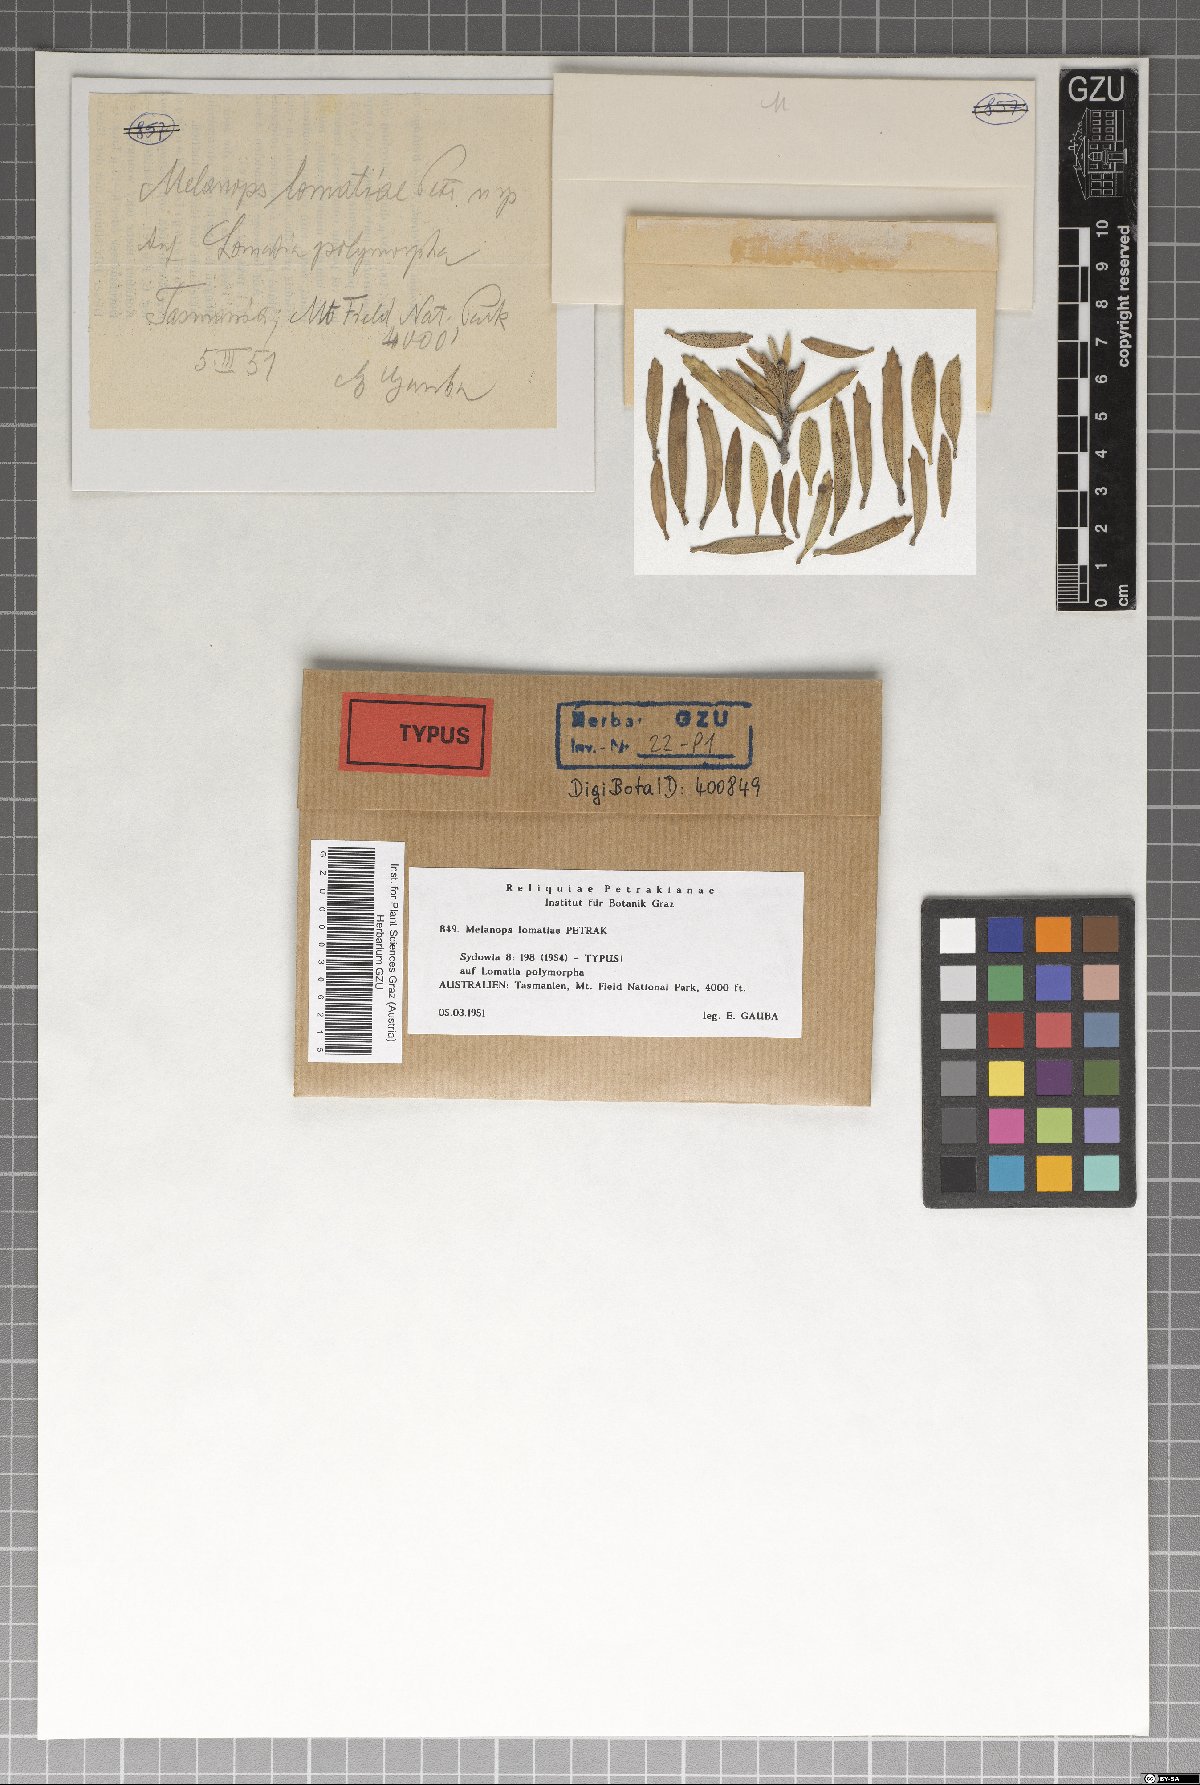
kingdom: Fungi
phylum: Ascomycota
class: Dothideomycetes
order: Botryosphaeriales
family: Botryosphaeriaceae
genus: Melanops
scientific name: Melanops lomatiae
